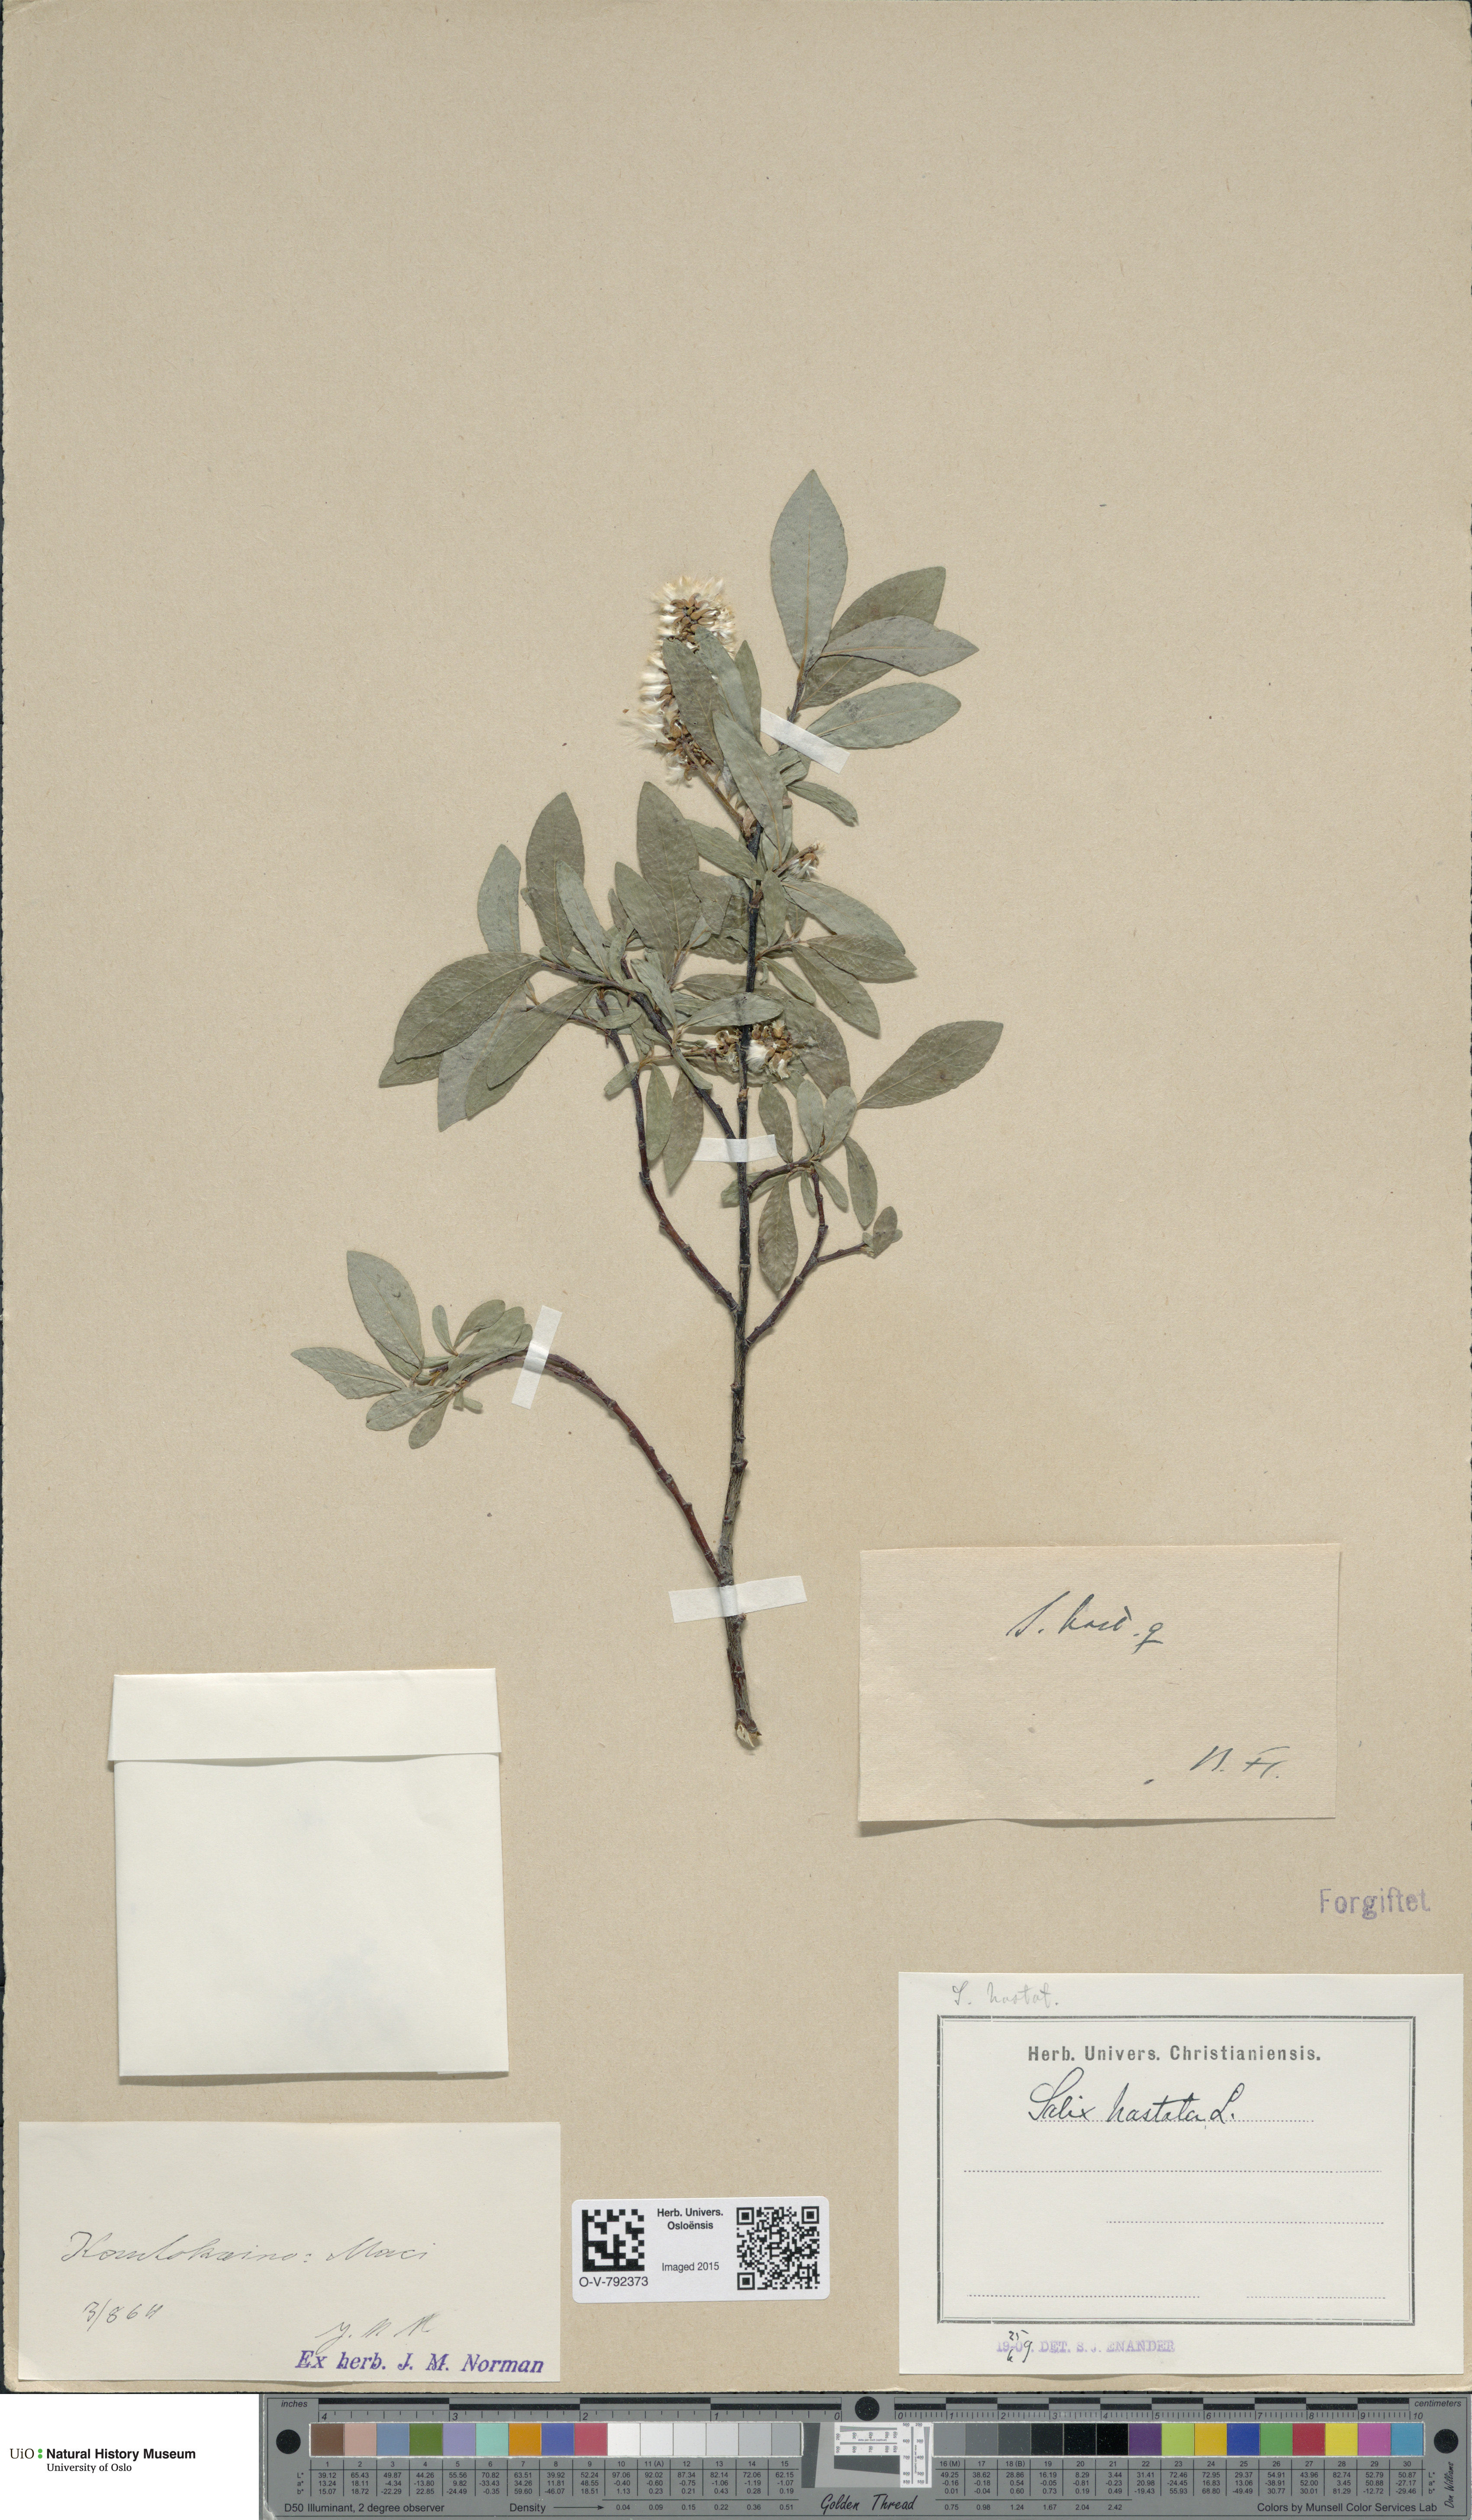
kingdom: Plantae
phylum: Tracheophyta
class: Magnoliopsida
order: Malpighiales
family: Salicaceae
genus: Salix
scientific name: Salix hastata
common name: Halberd willow
